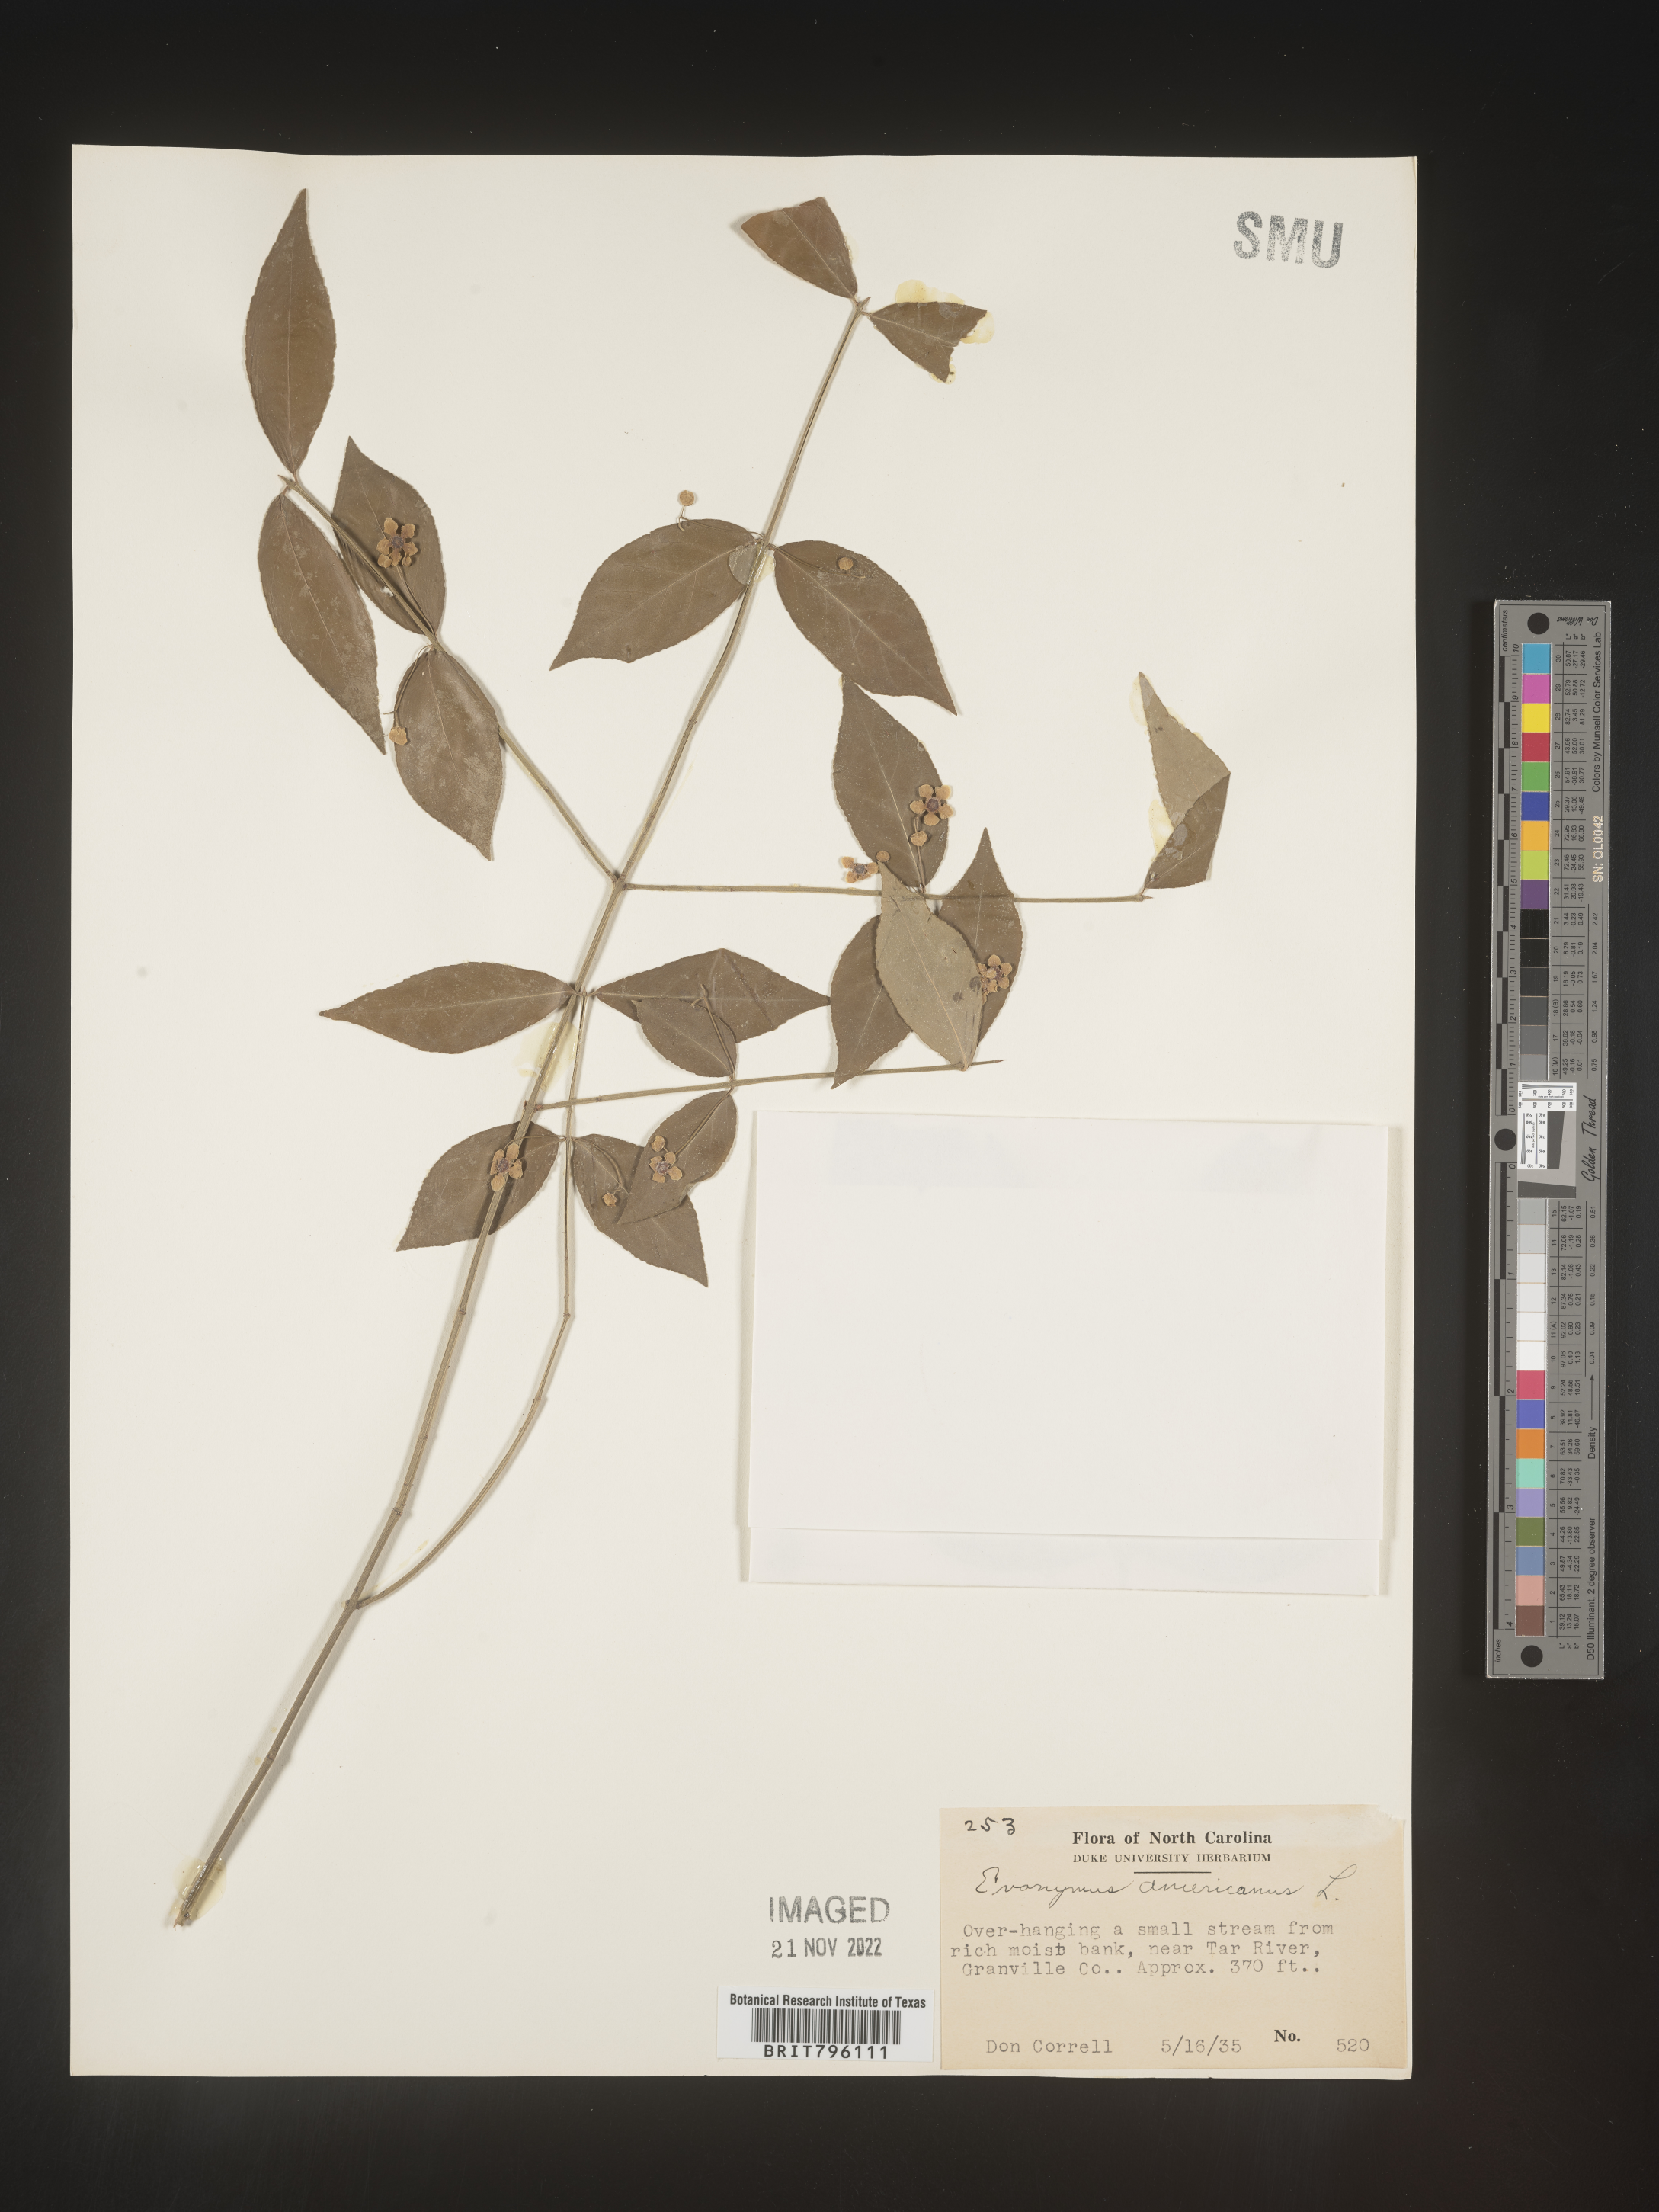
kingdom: Plantae
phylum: Tracheophyta
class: Magnoliopsida
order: Celastrales
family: Celastraceae
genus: Euonymus
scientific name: Euonymus americanus
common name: Bursting-heart
